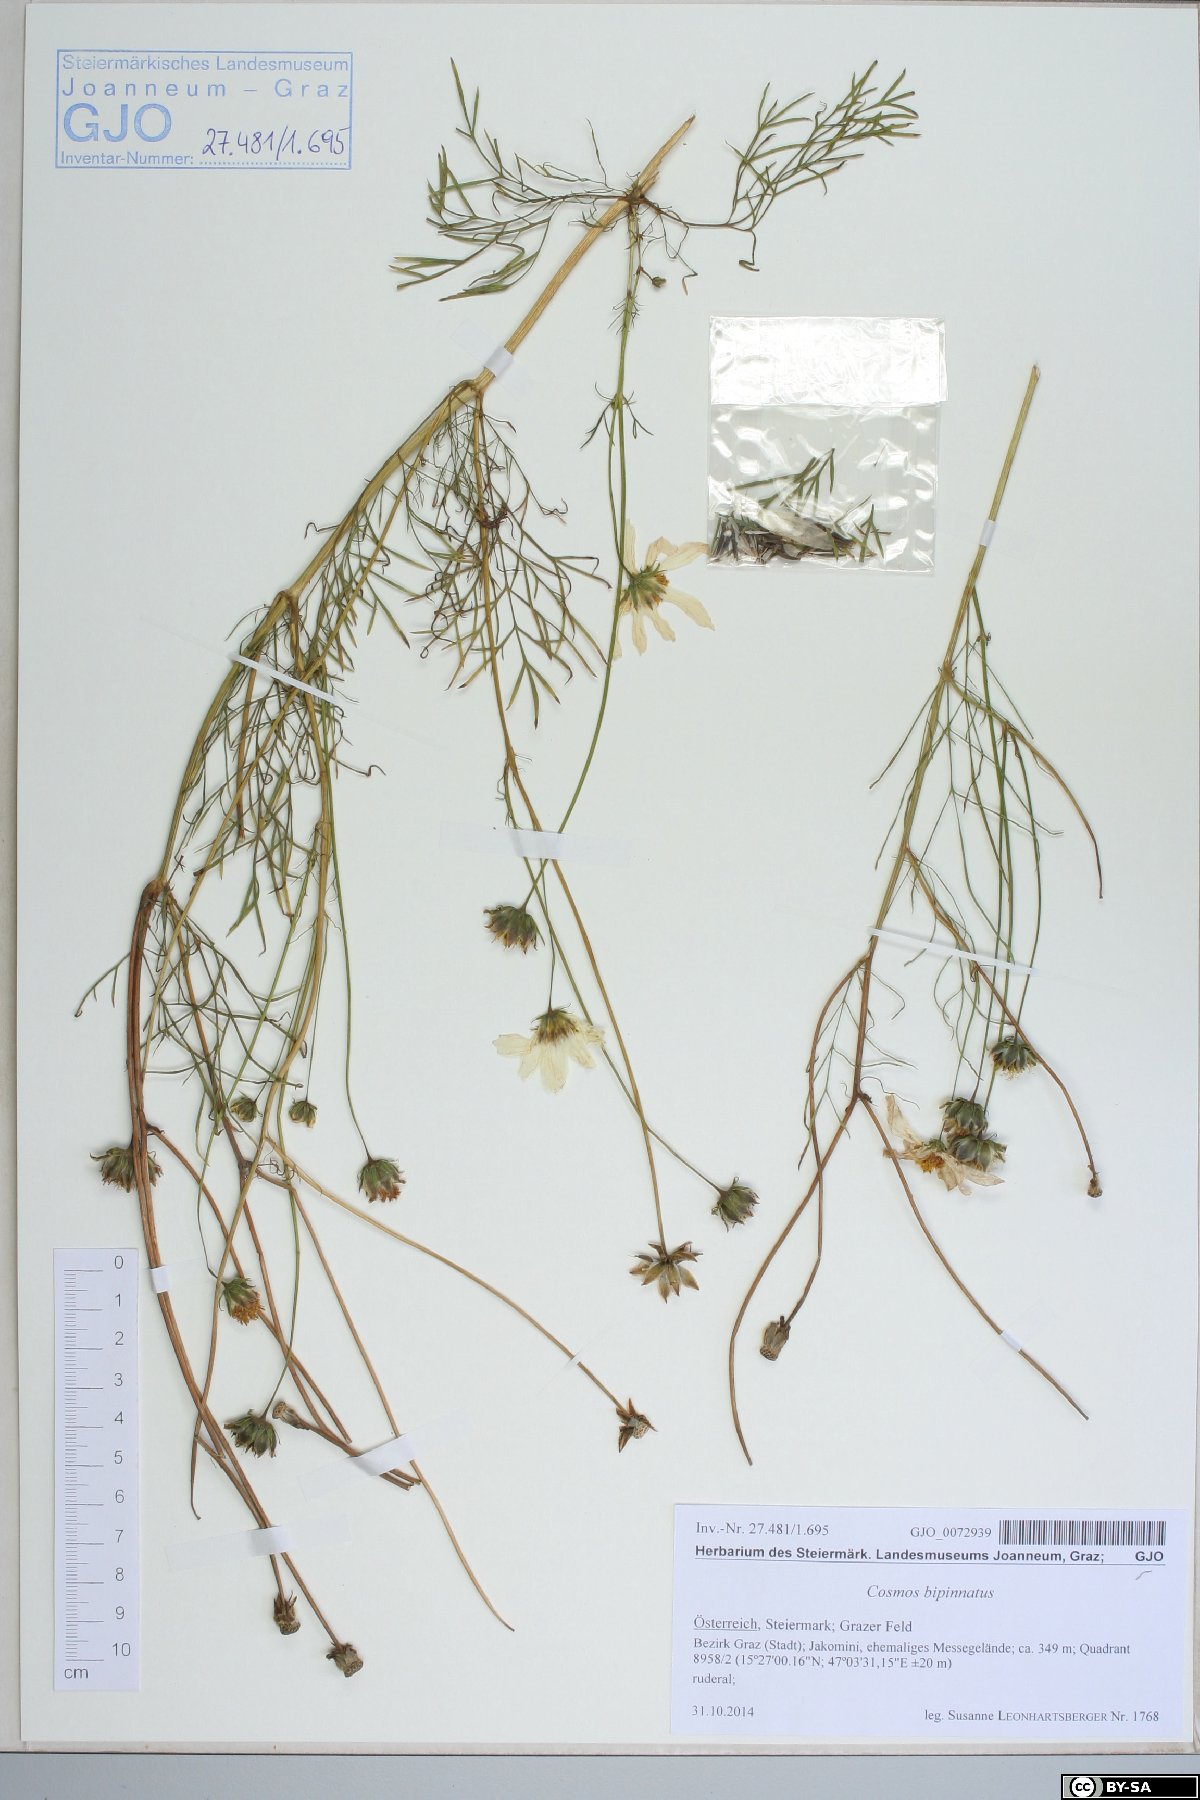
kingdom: Plantae
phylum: Tracheophyta
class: Magnoliopsida
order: Asterales
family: Asteraceae
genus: Cosmos
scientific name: Cosmos bipinnatus
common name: Garden cosmos
